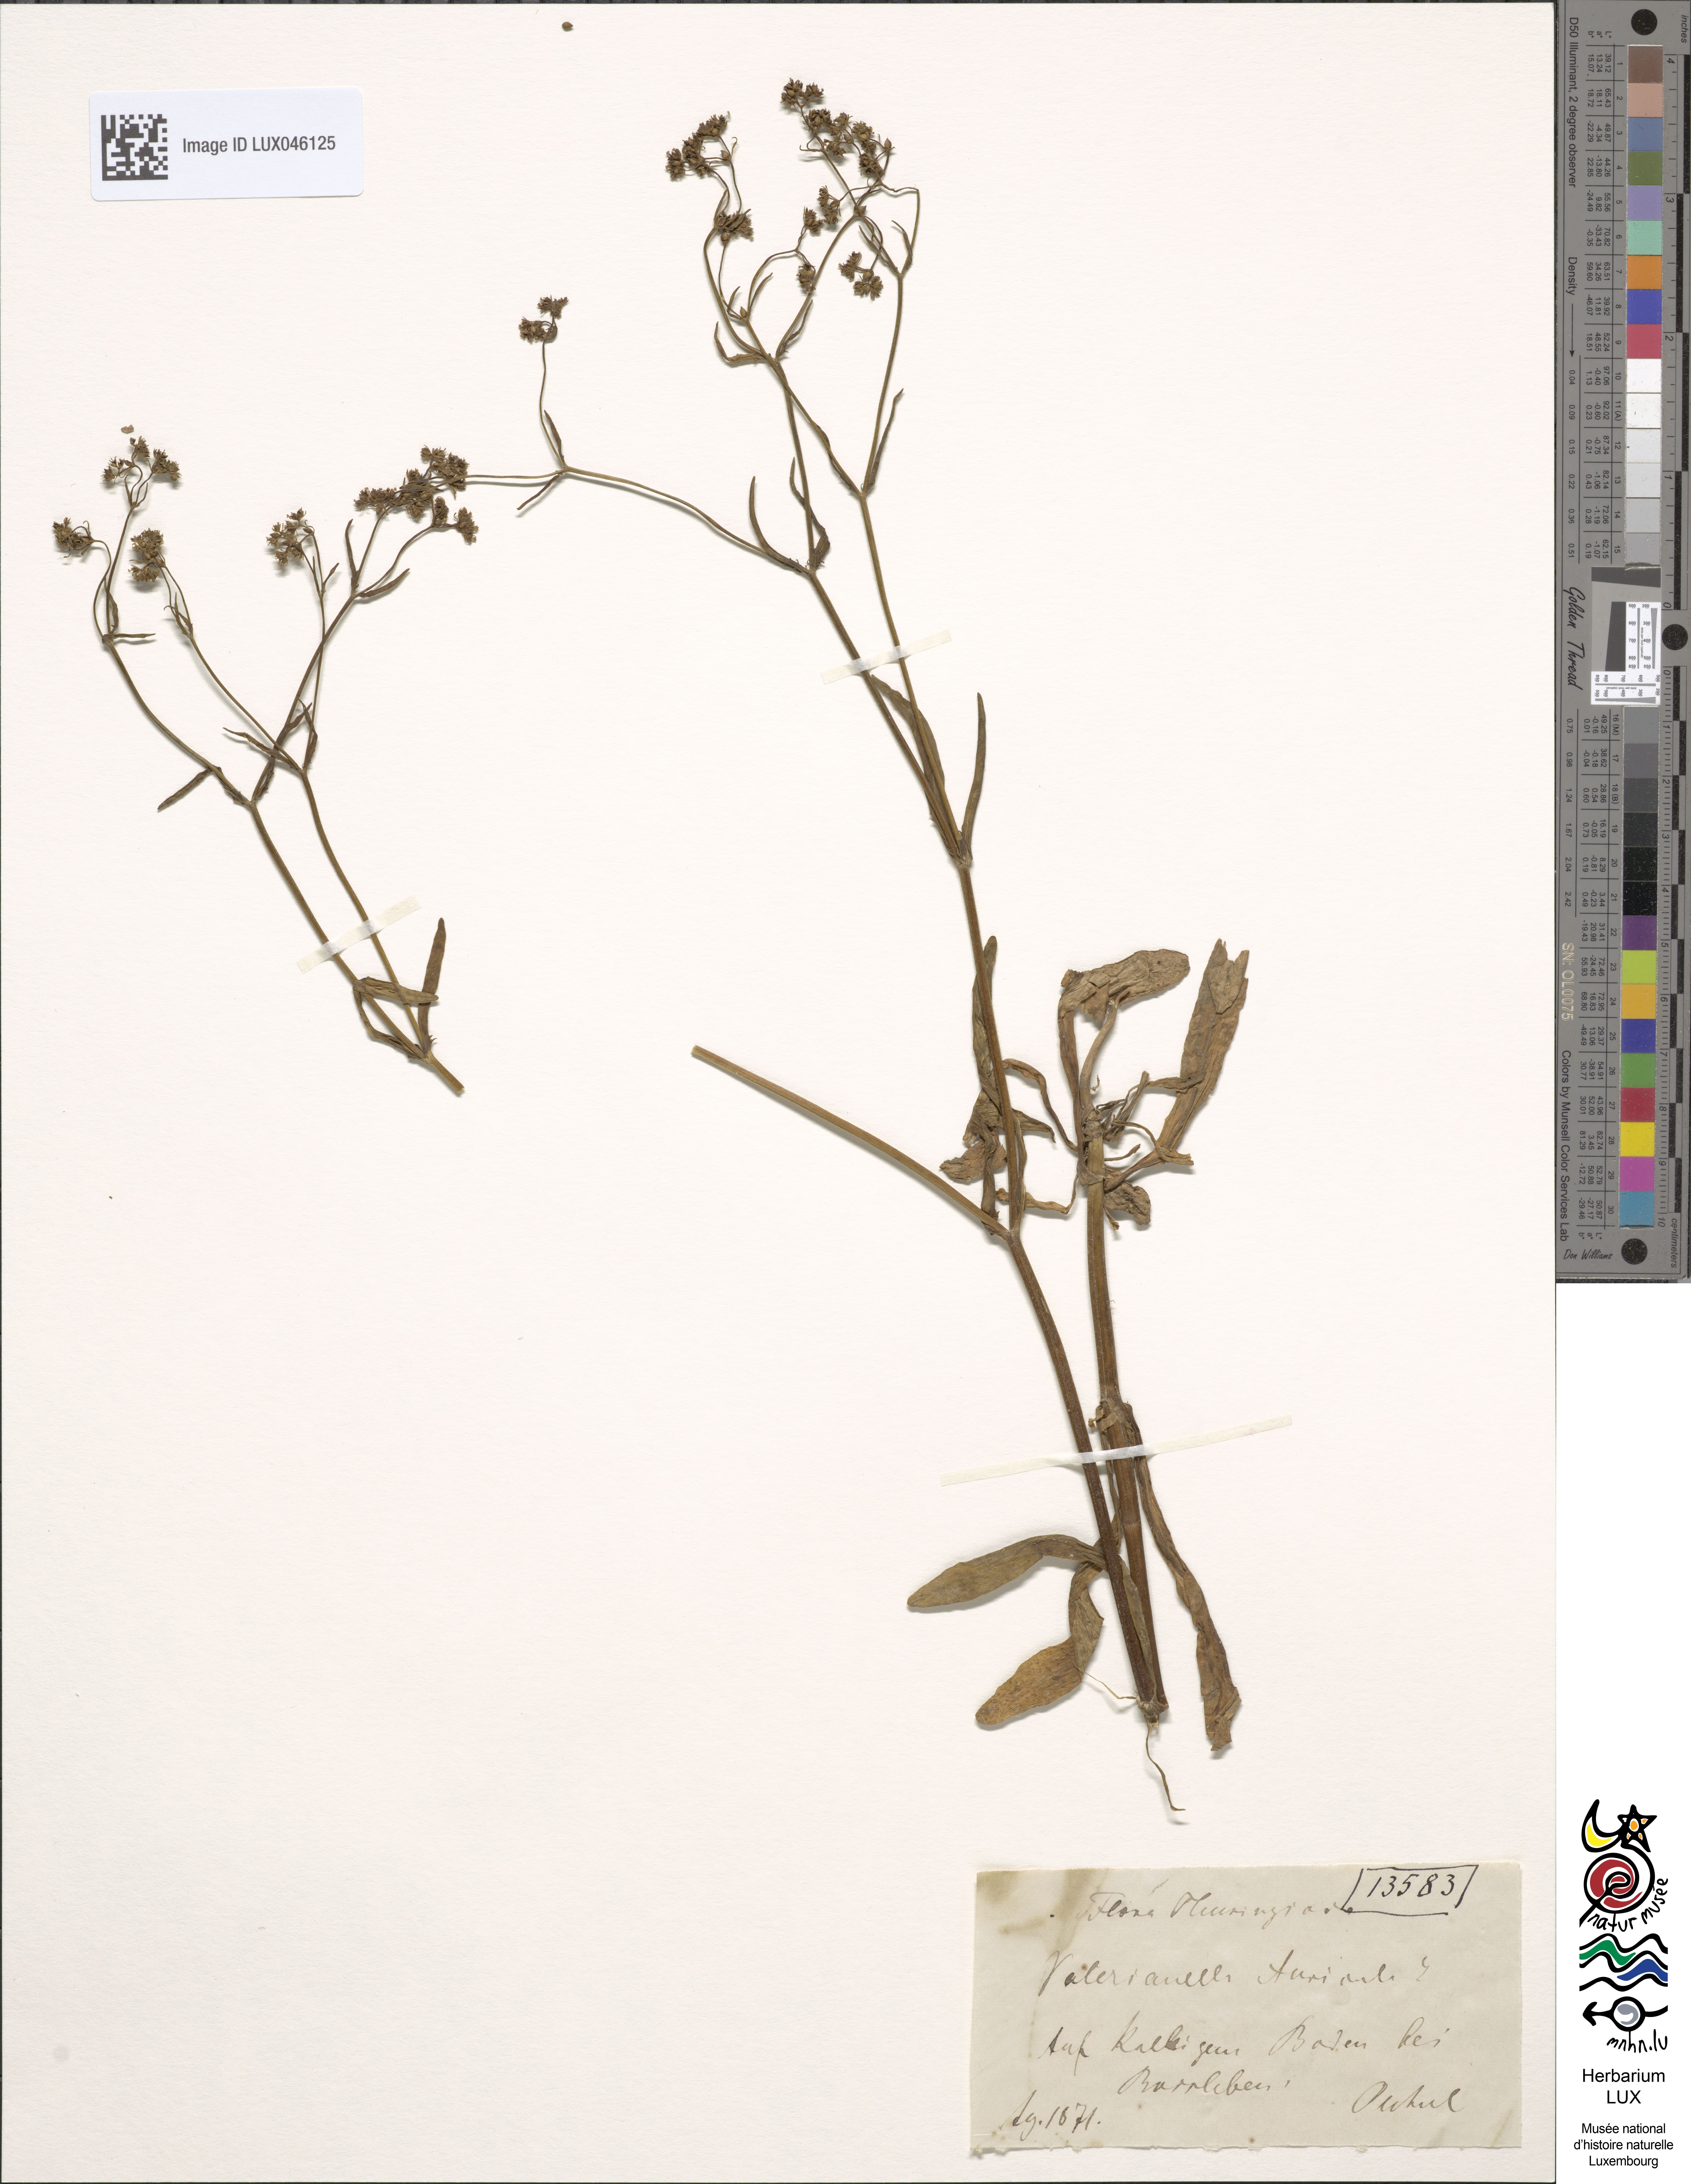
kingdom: Plantae
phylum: Tracheophyta
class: Magnoliopsida
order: Dipsacales
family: Caprifoliaceae
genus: Valerianella
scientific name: Valerianella rimosa
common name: Broad-fruited cornsalad
